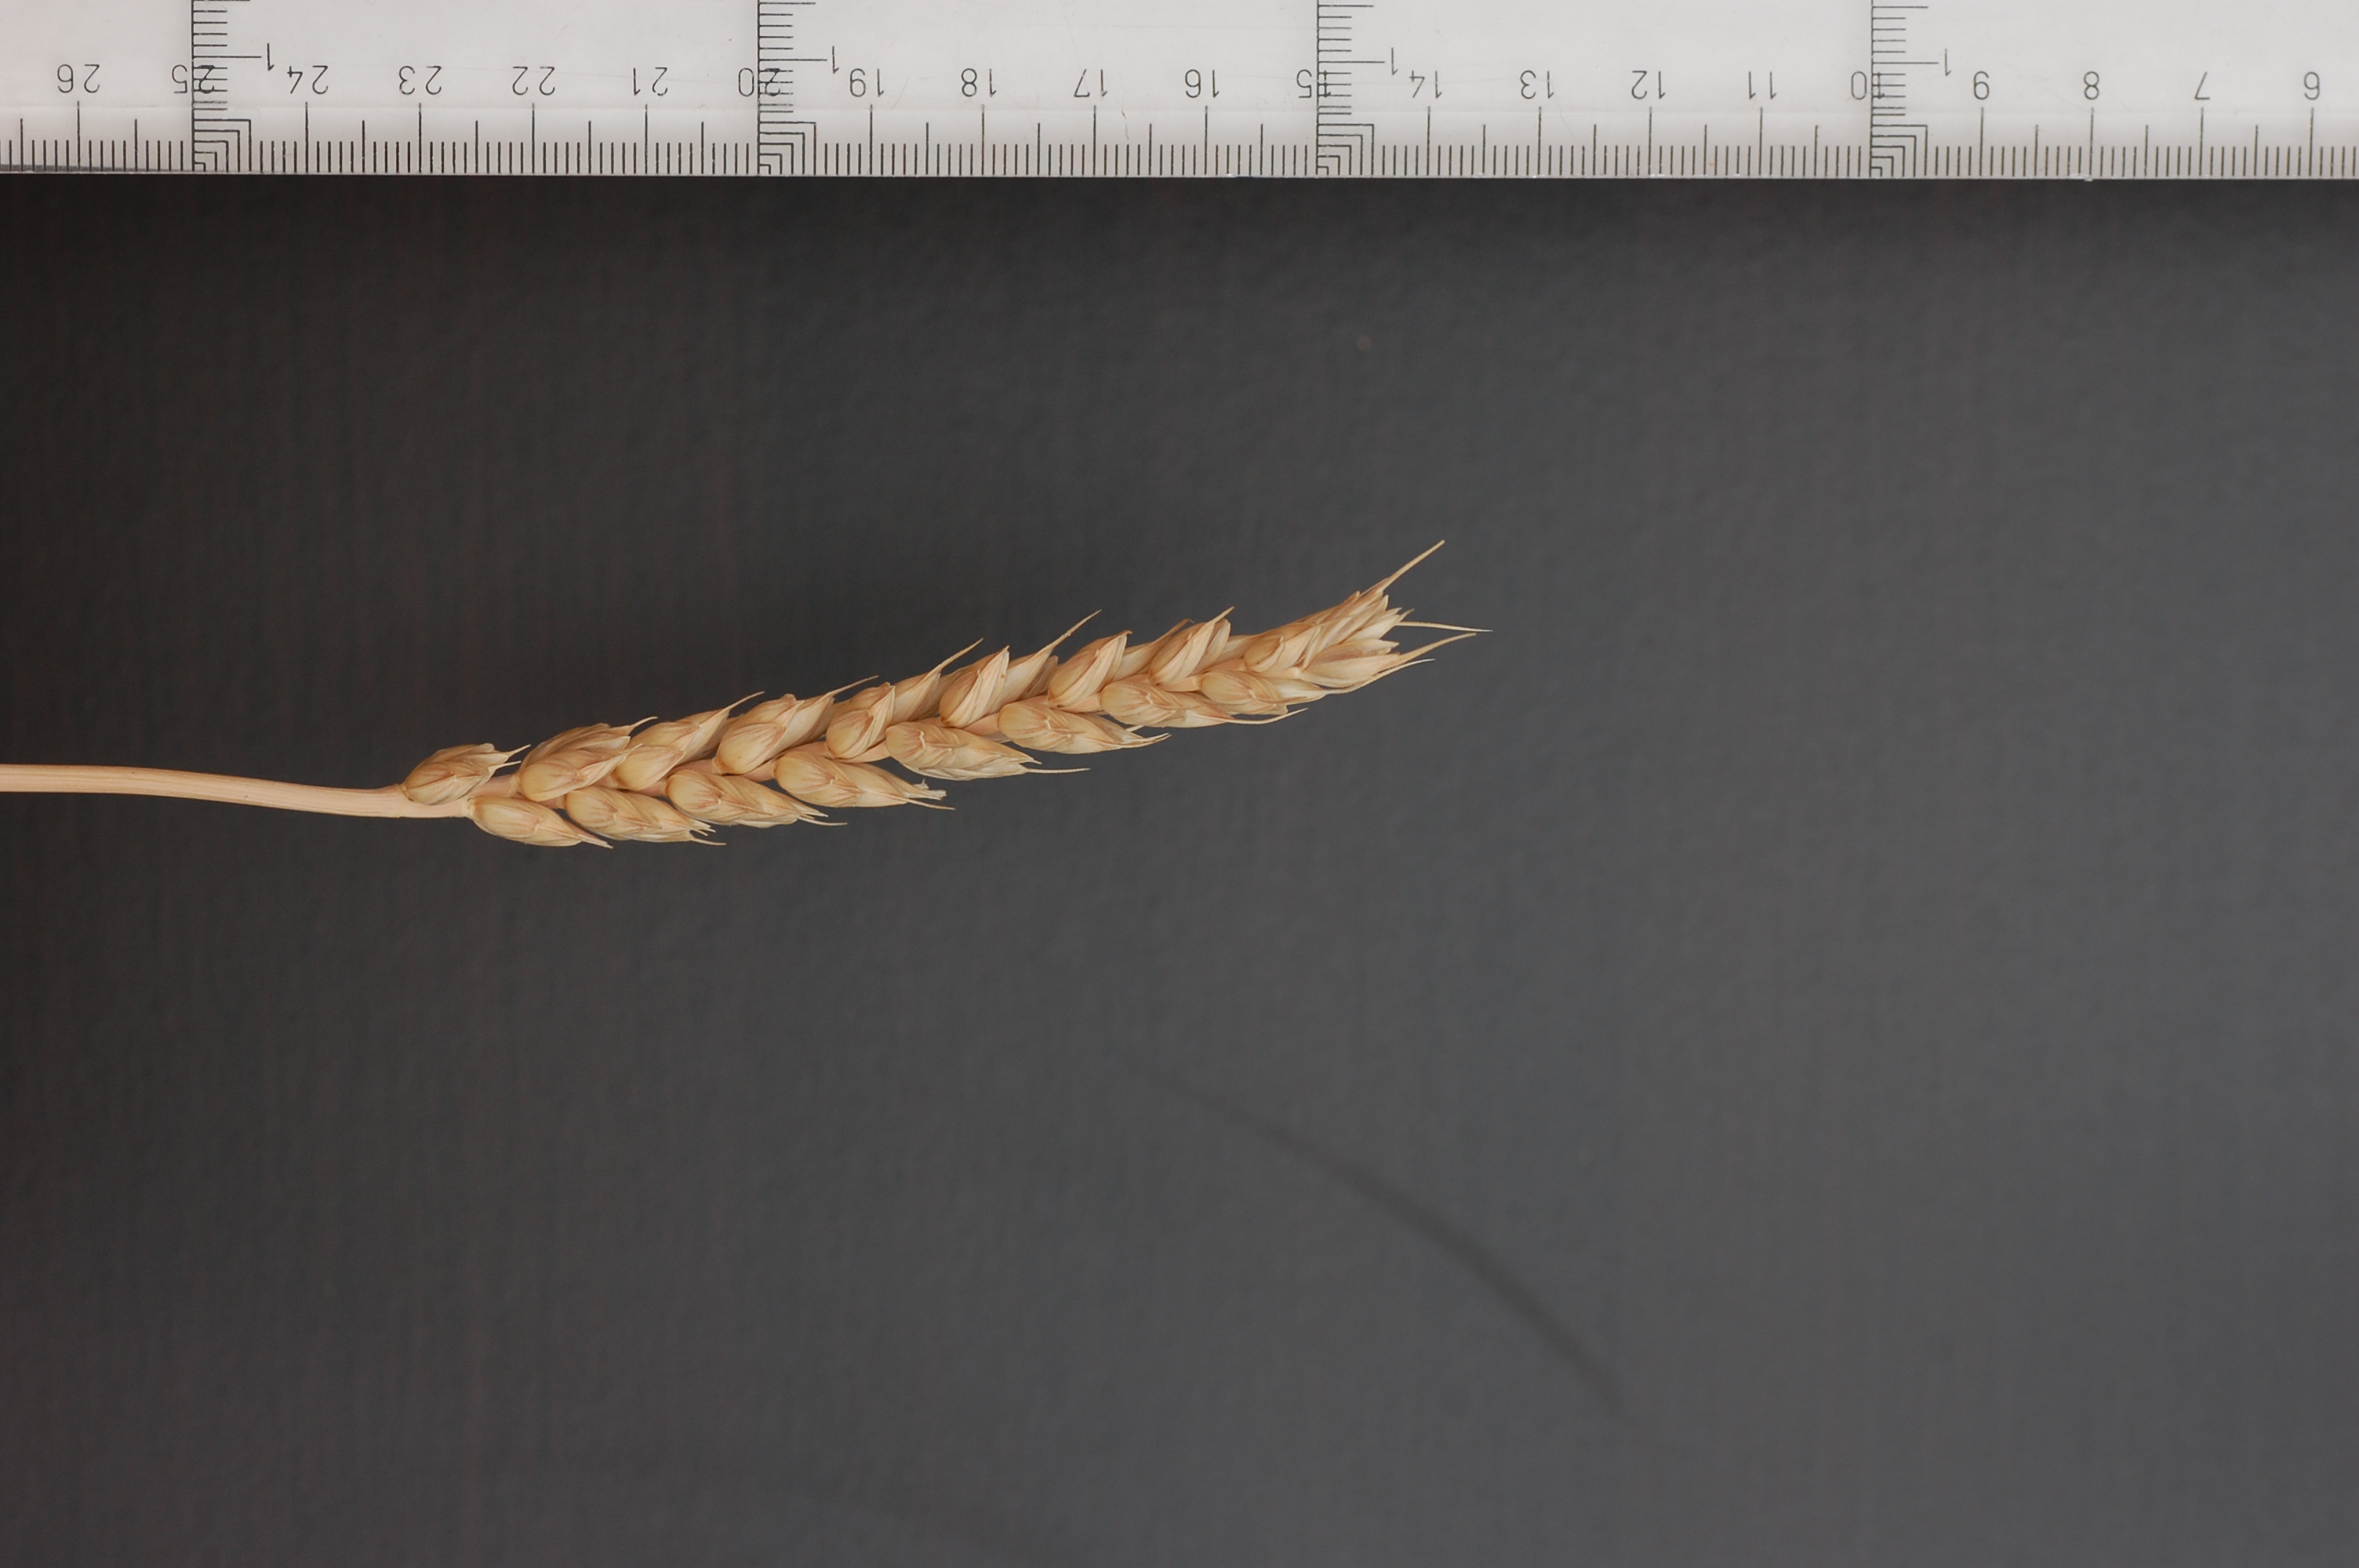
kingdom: Plantae
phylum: Tracheophyta
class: Liliopsida
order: Poales
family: Poaceae
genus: Triticum
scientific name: Triticum aestivum
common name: Common wheat
